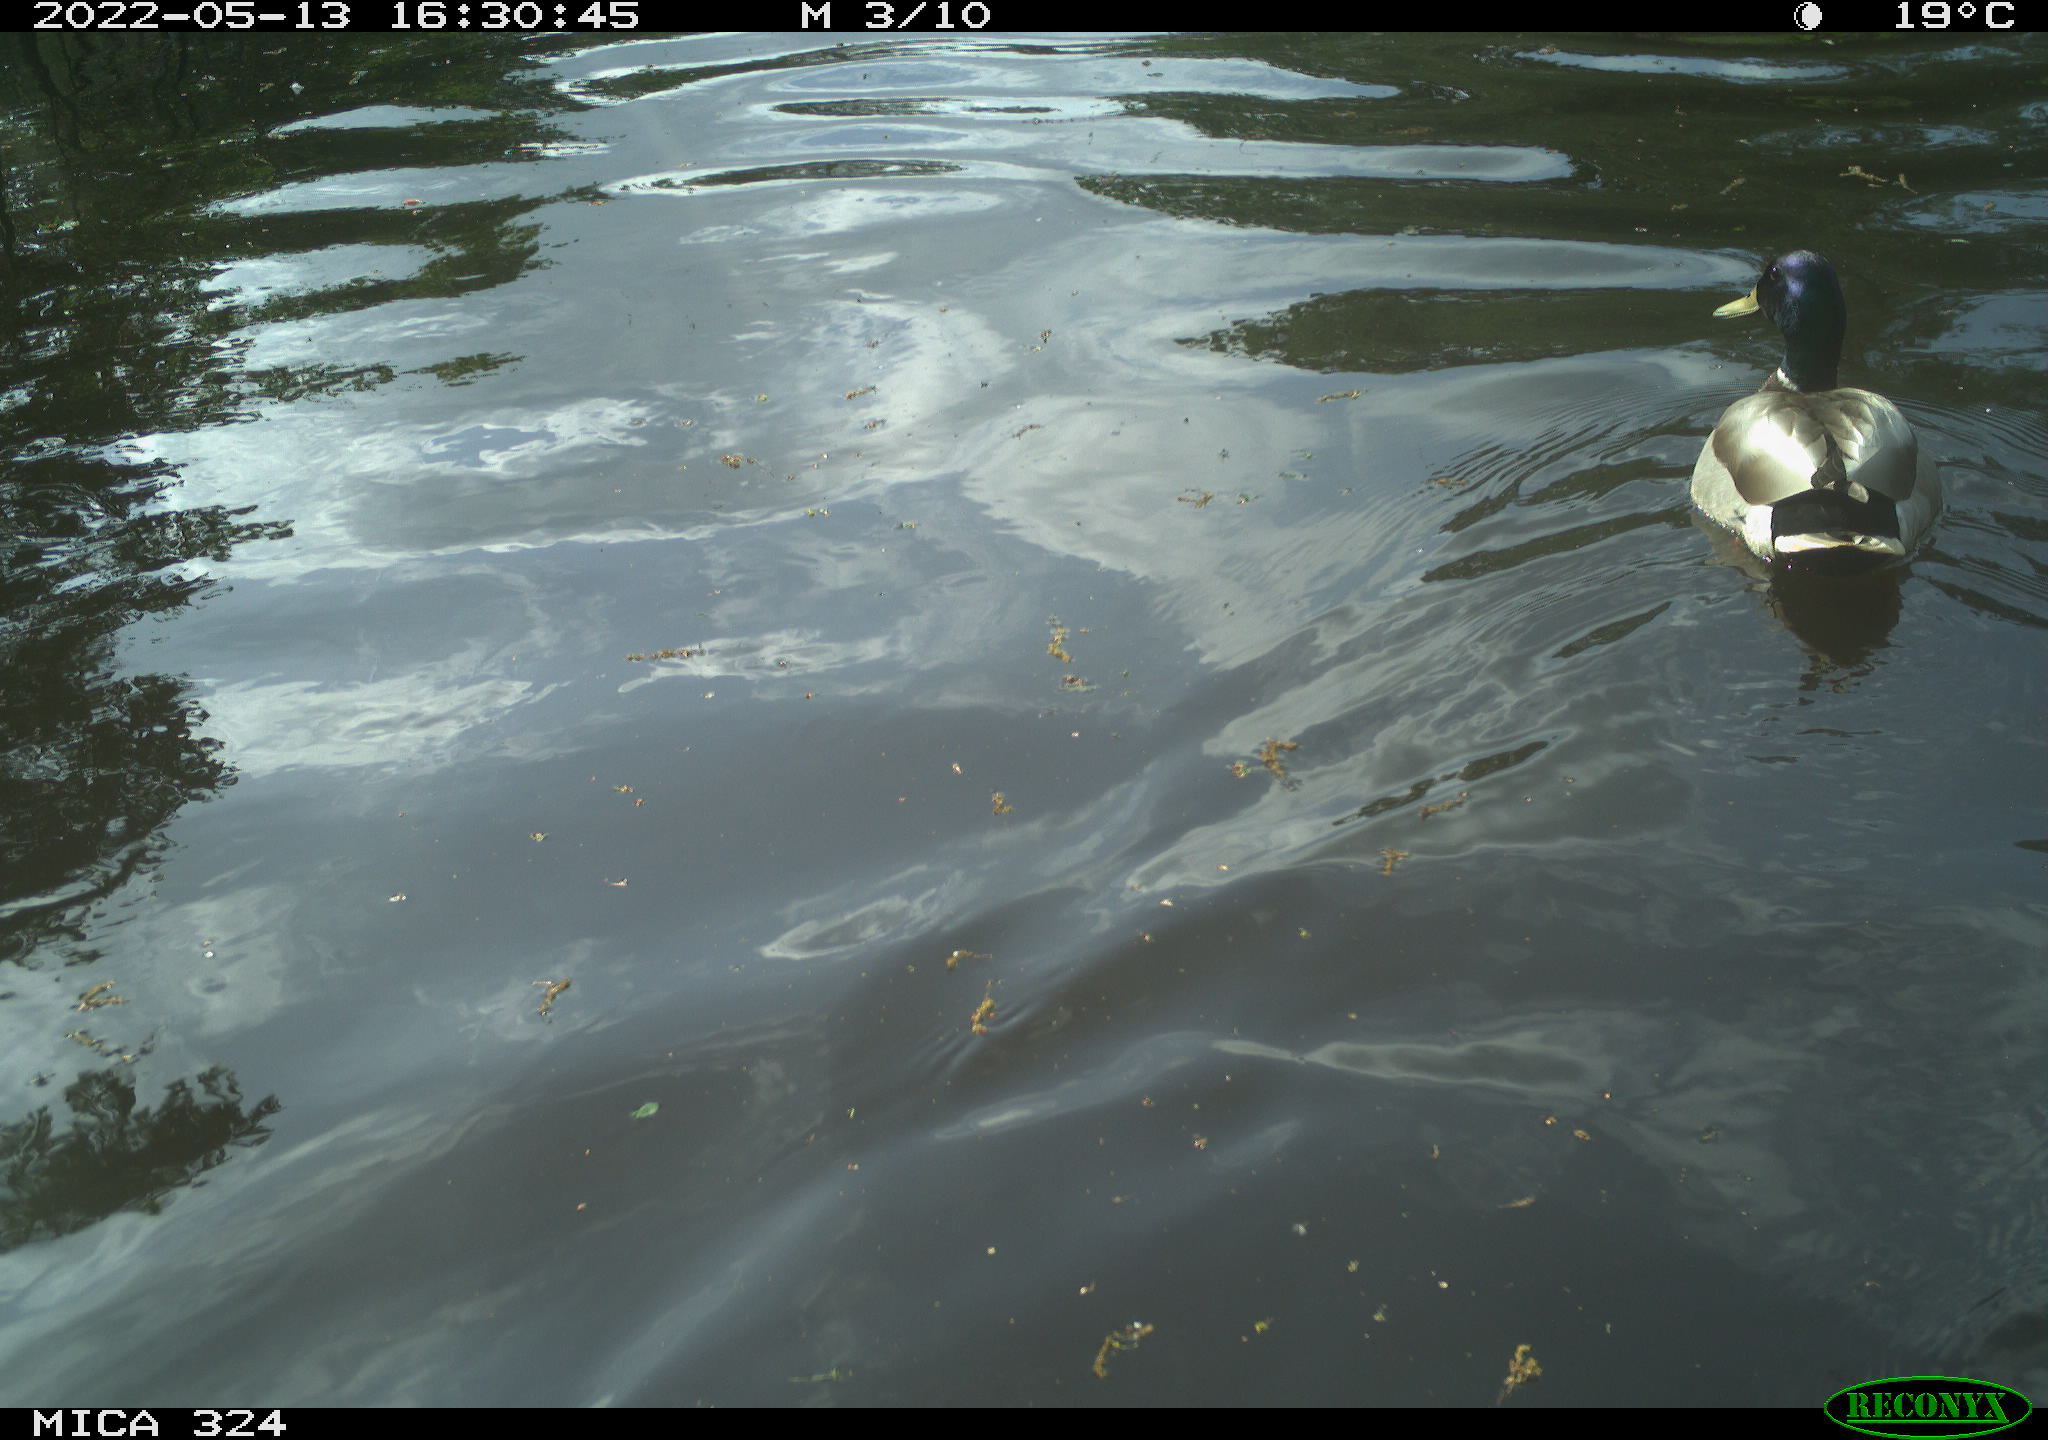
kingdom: Animalia
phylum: Chordata
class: Aves
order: Anseriformes
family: Anatidae
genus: Anas
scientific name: Anas platyrhynchos
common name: Mallard
